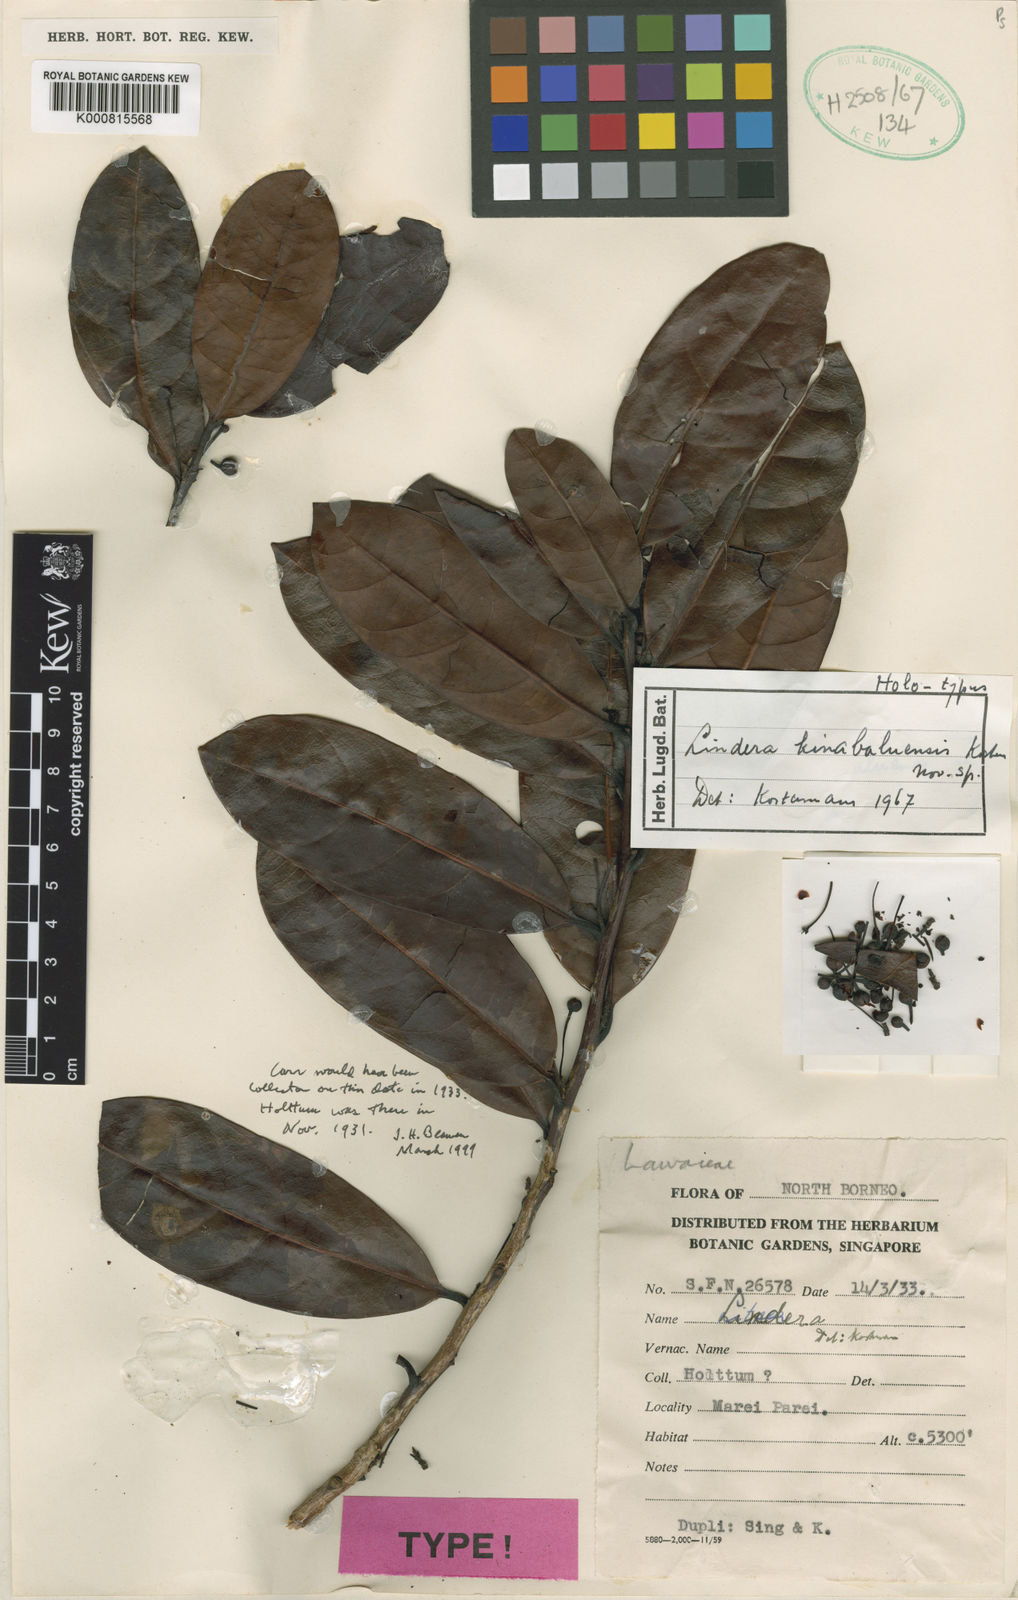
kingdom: Plantae
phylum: Tracheophyta
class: Magnoliopsida
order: Laurales
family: Lauraceae
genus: Lindera
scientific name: Lindera kinabaluensis
